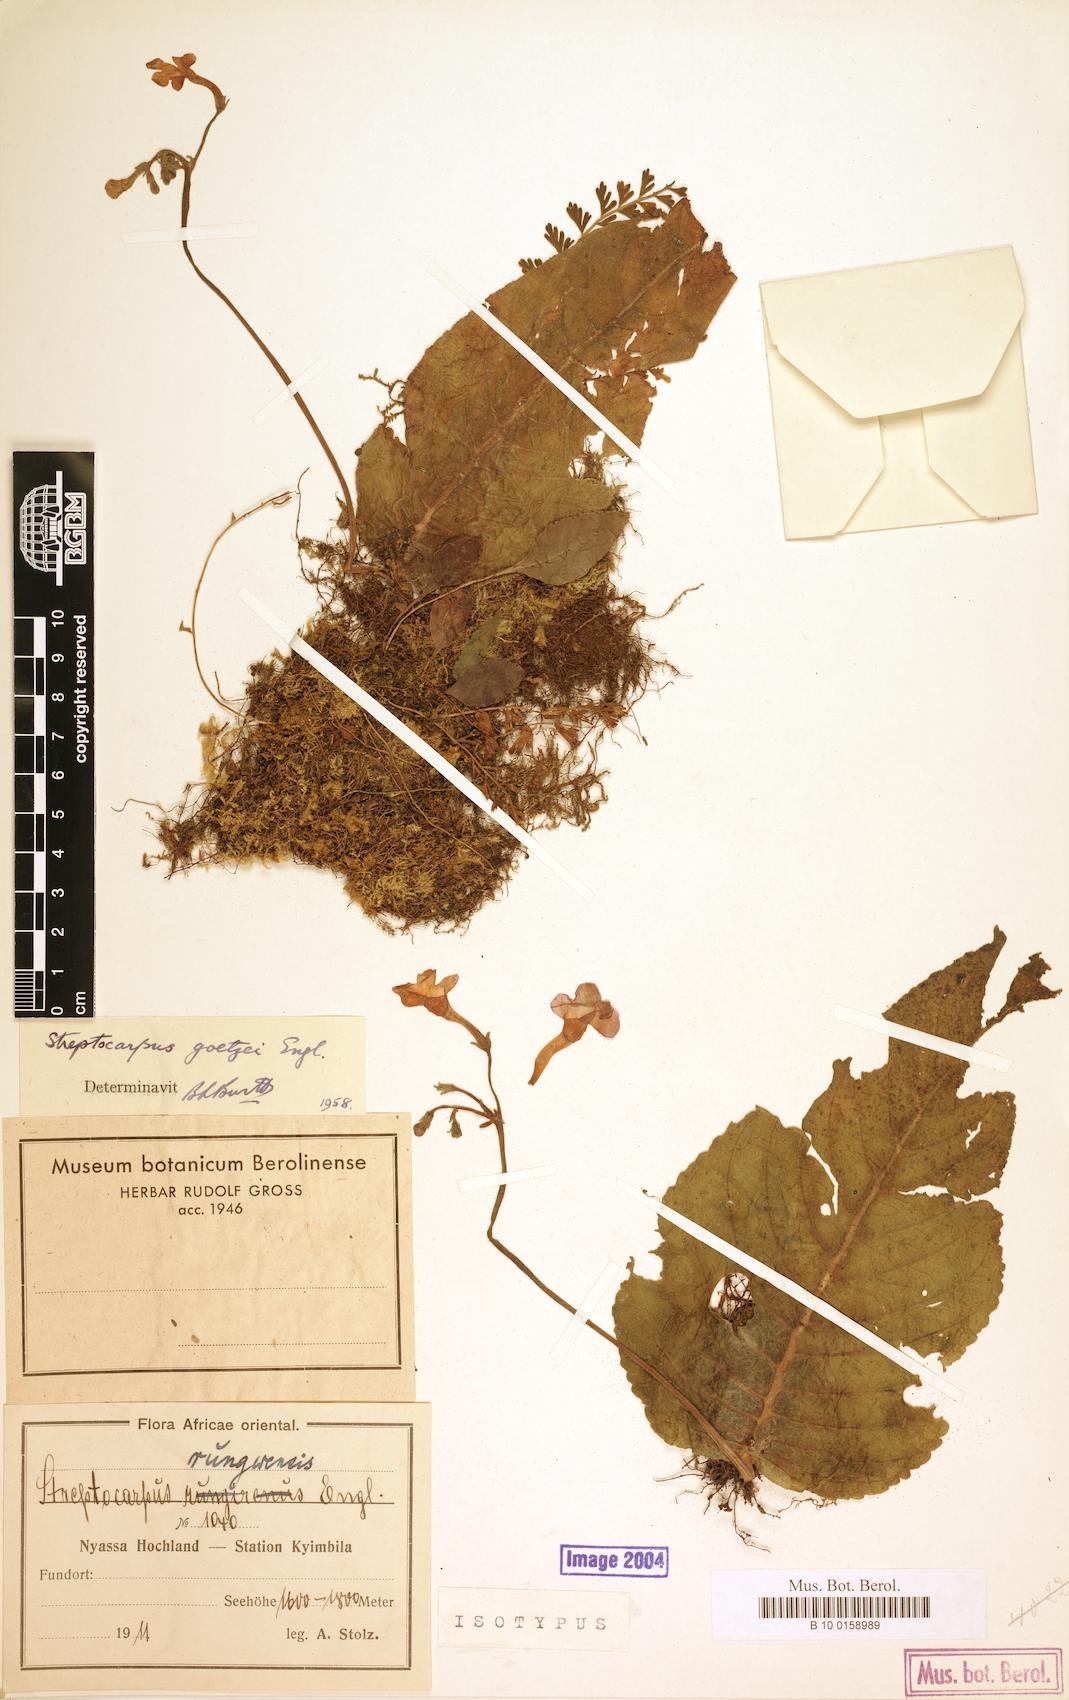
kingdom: Plantae
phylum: Tracheophyta
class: Magnoliopsida
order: Lamiales
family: Gesneriaceae
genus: Streptocarpus
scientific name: Streptocarpus goetzei
